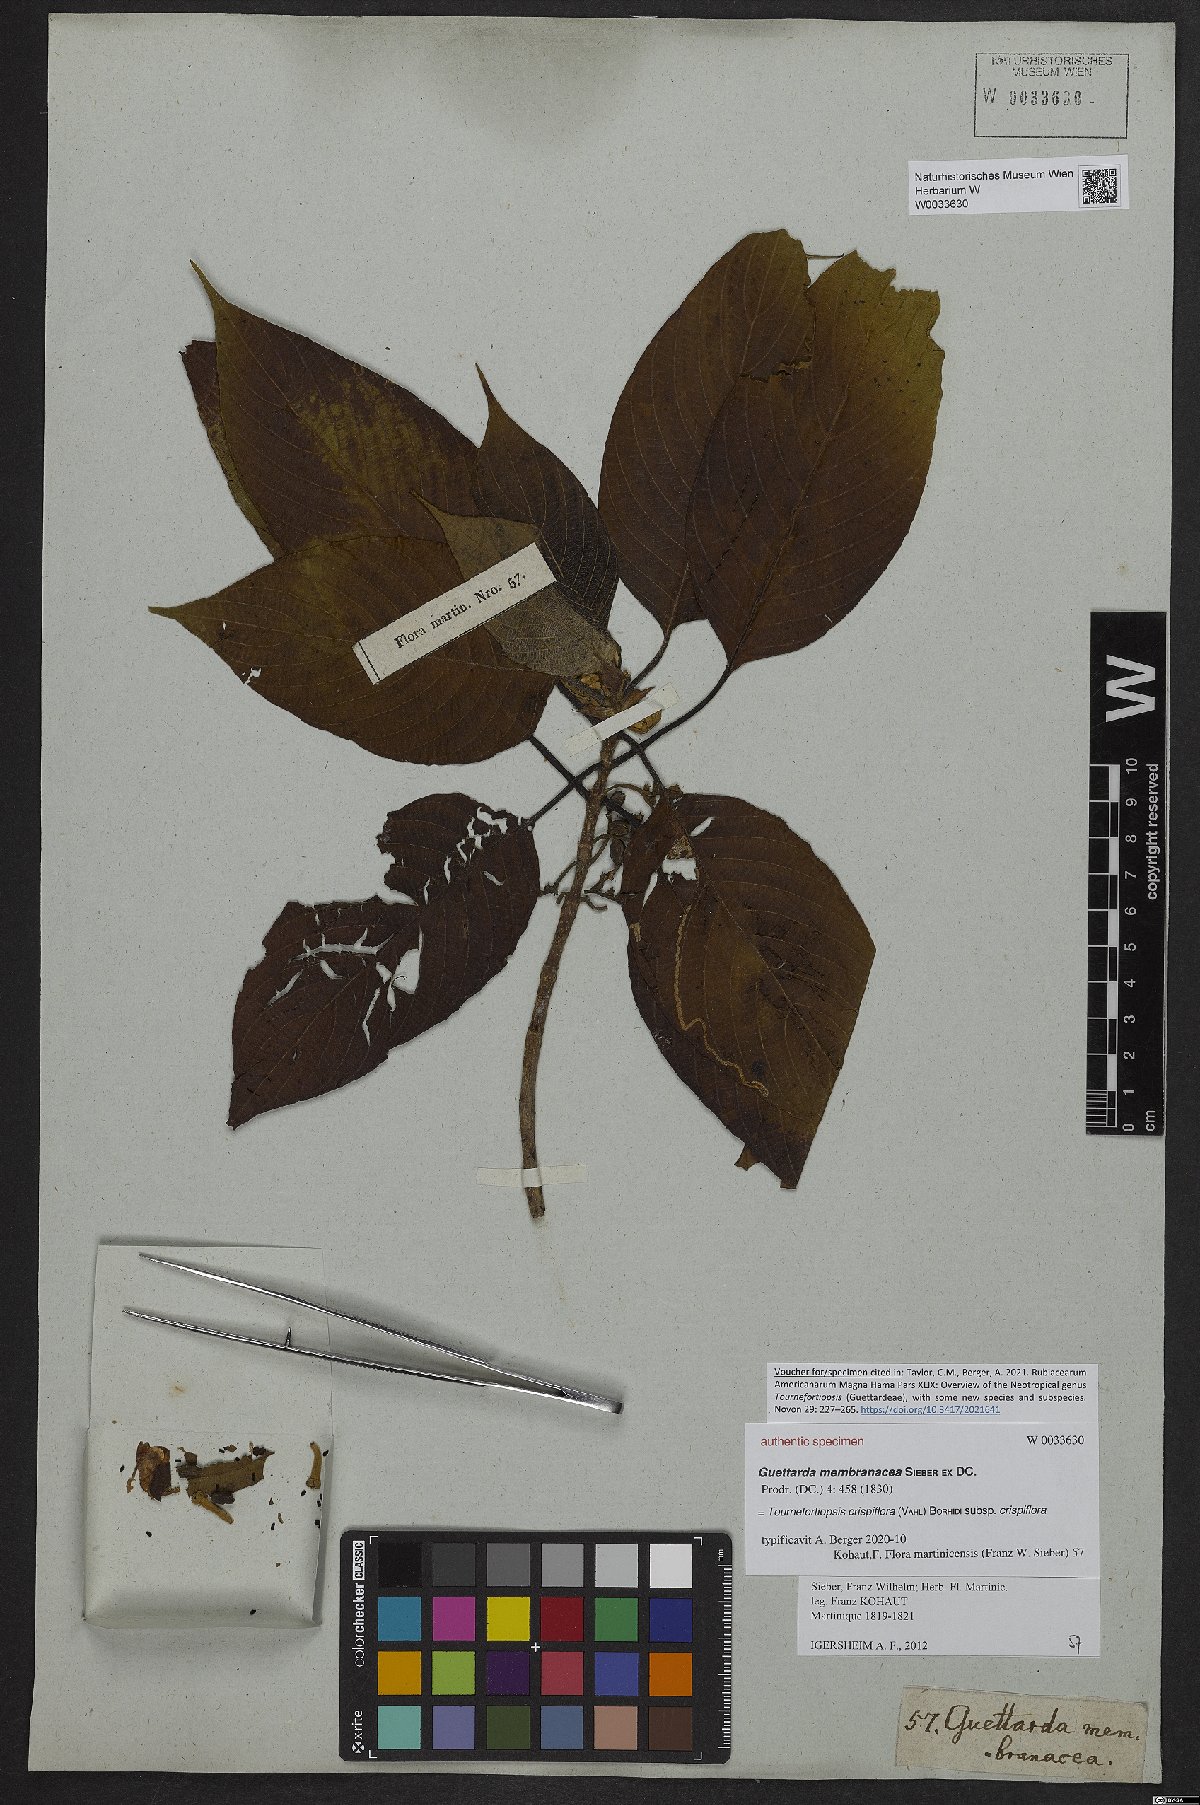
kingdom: Plantae
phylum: Tracheophyta
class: Magnoliopsida
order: Gentianales
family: Rubiaceae
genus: Tournefortiopsis
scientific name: Tournefortiopsis crispiflora
